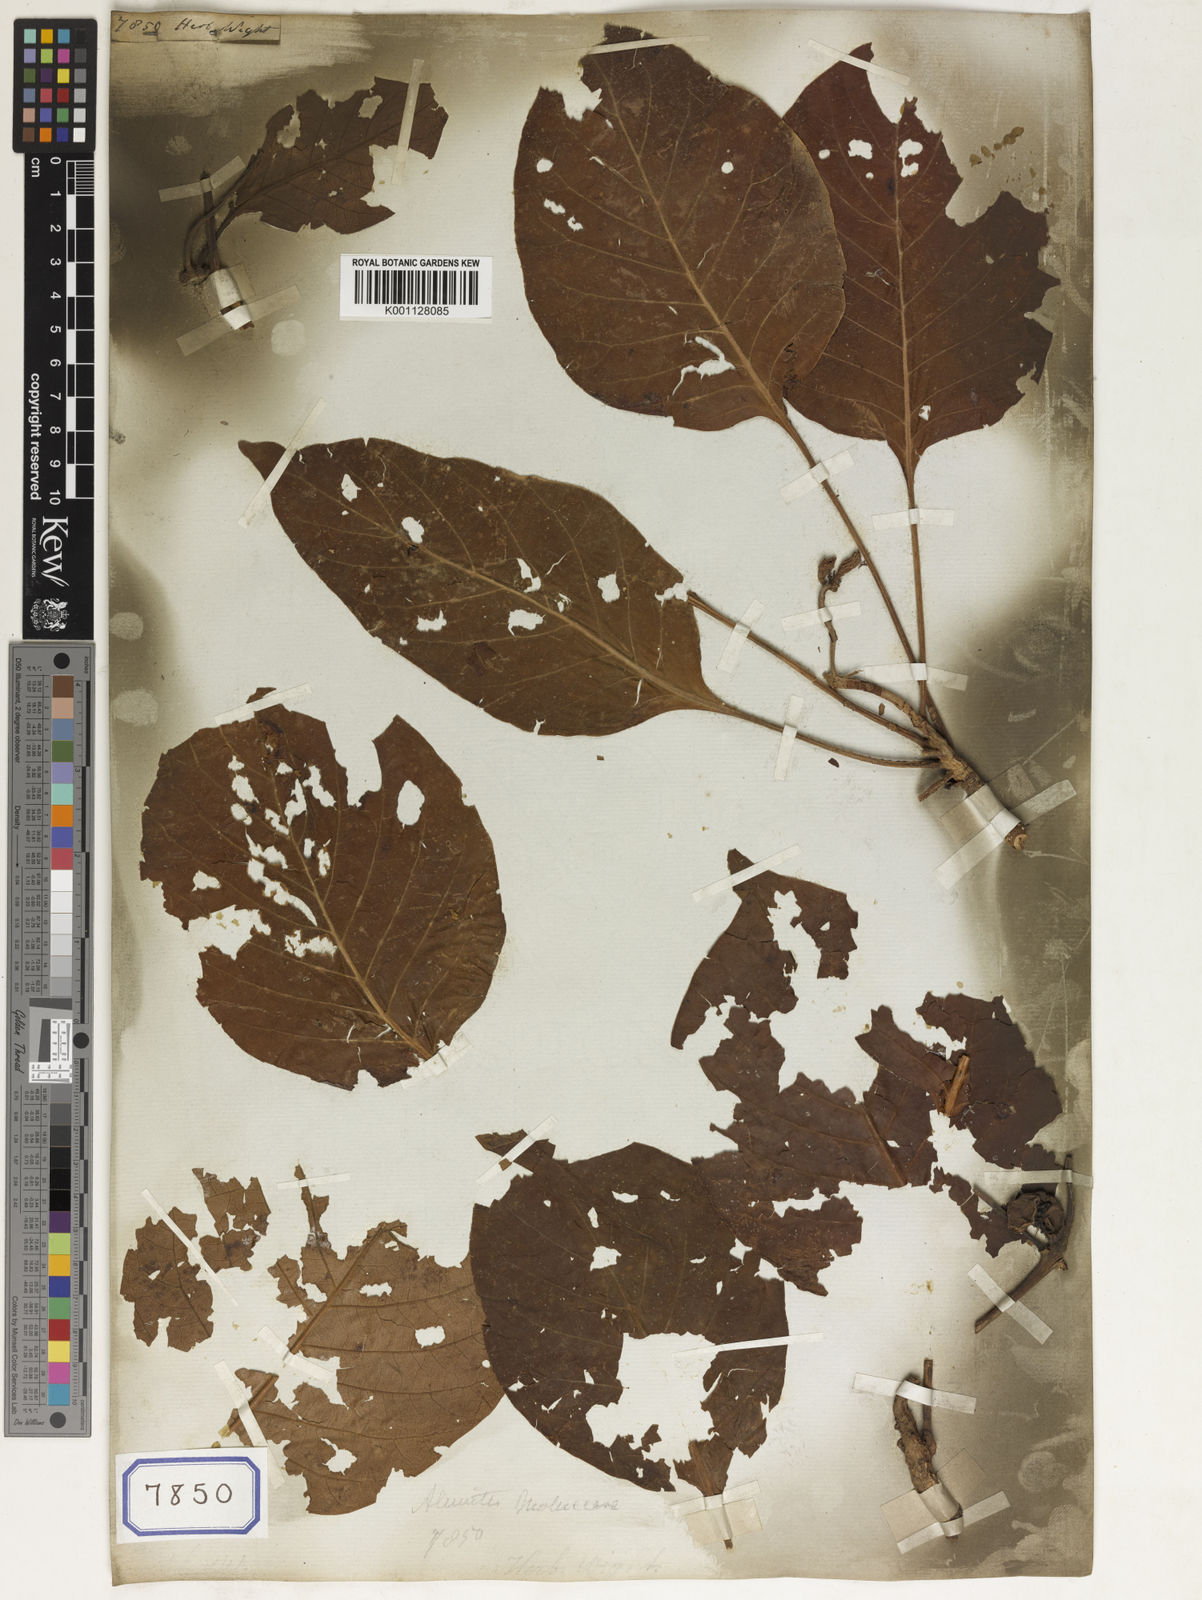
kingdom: Plantae
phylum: Tracheophyta
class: Magnoliopsida
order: Malpighiales
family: Euphorbiaceae
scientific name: Euphorbiaceae
